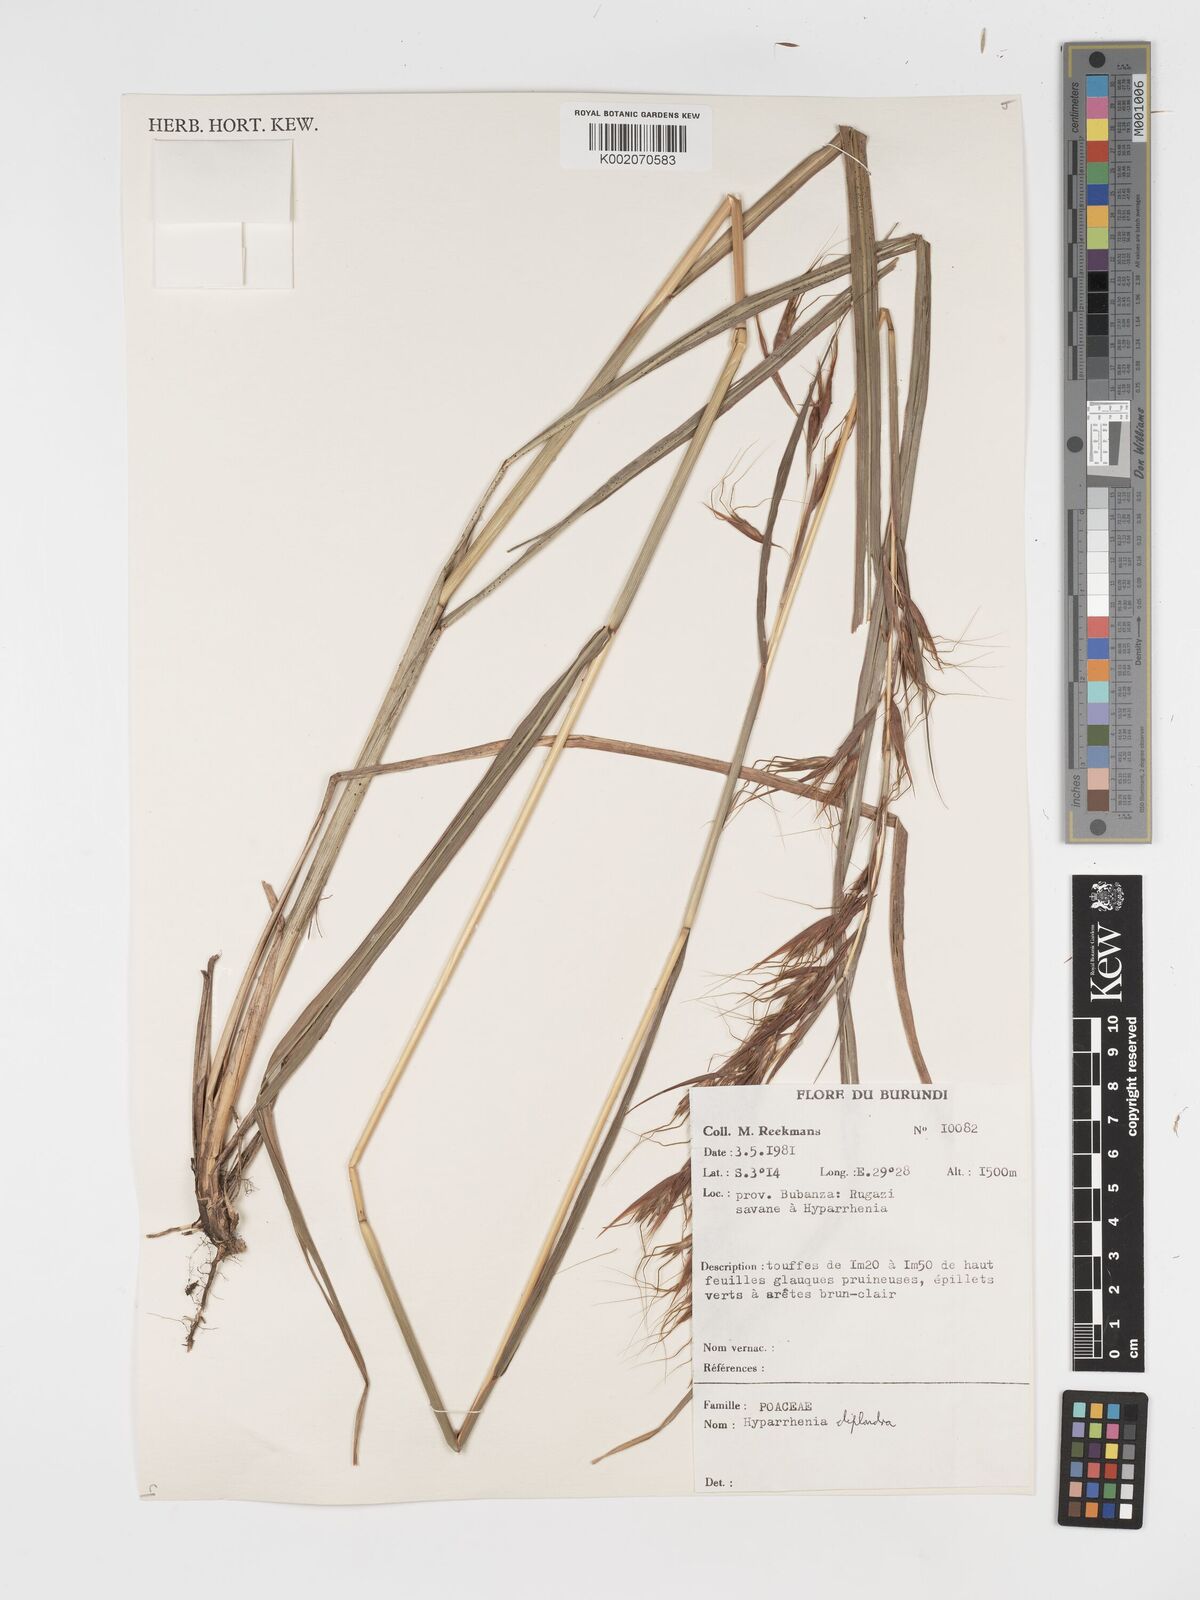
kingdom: Plantae
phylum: Tracheophyta
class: Liliopsida
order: Poales
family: Poaceae
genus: Hyparrhenia
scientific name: Hyparrhenia diplandra
